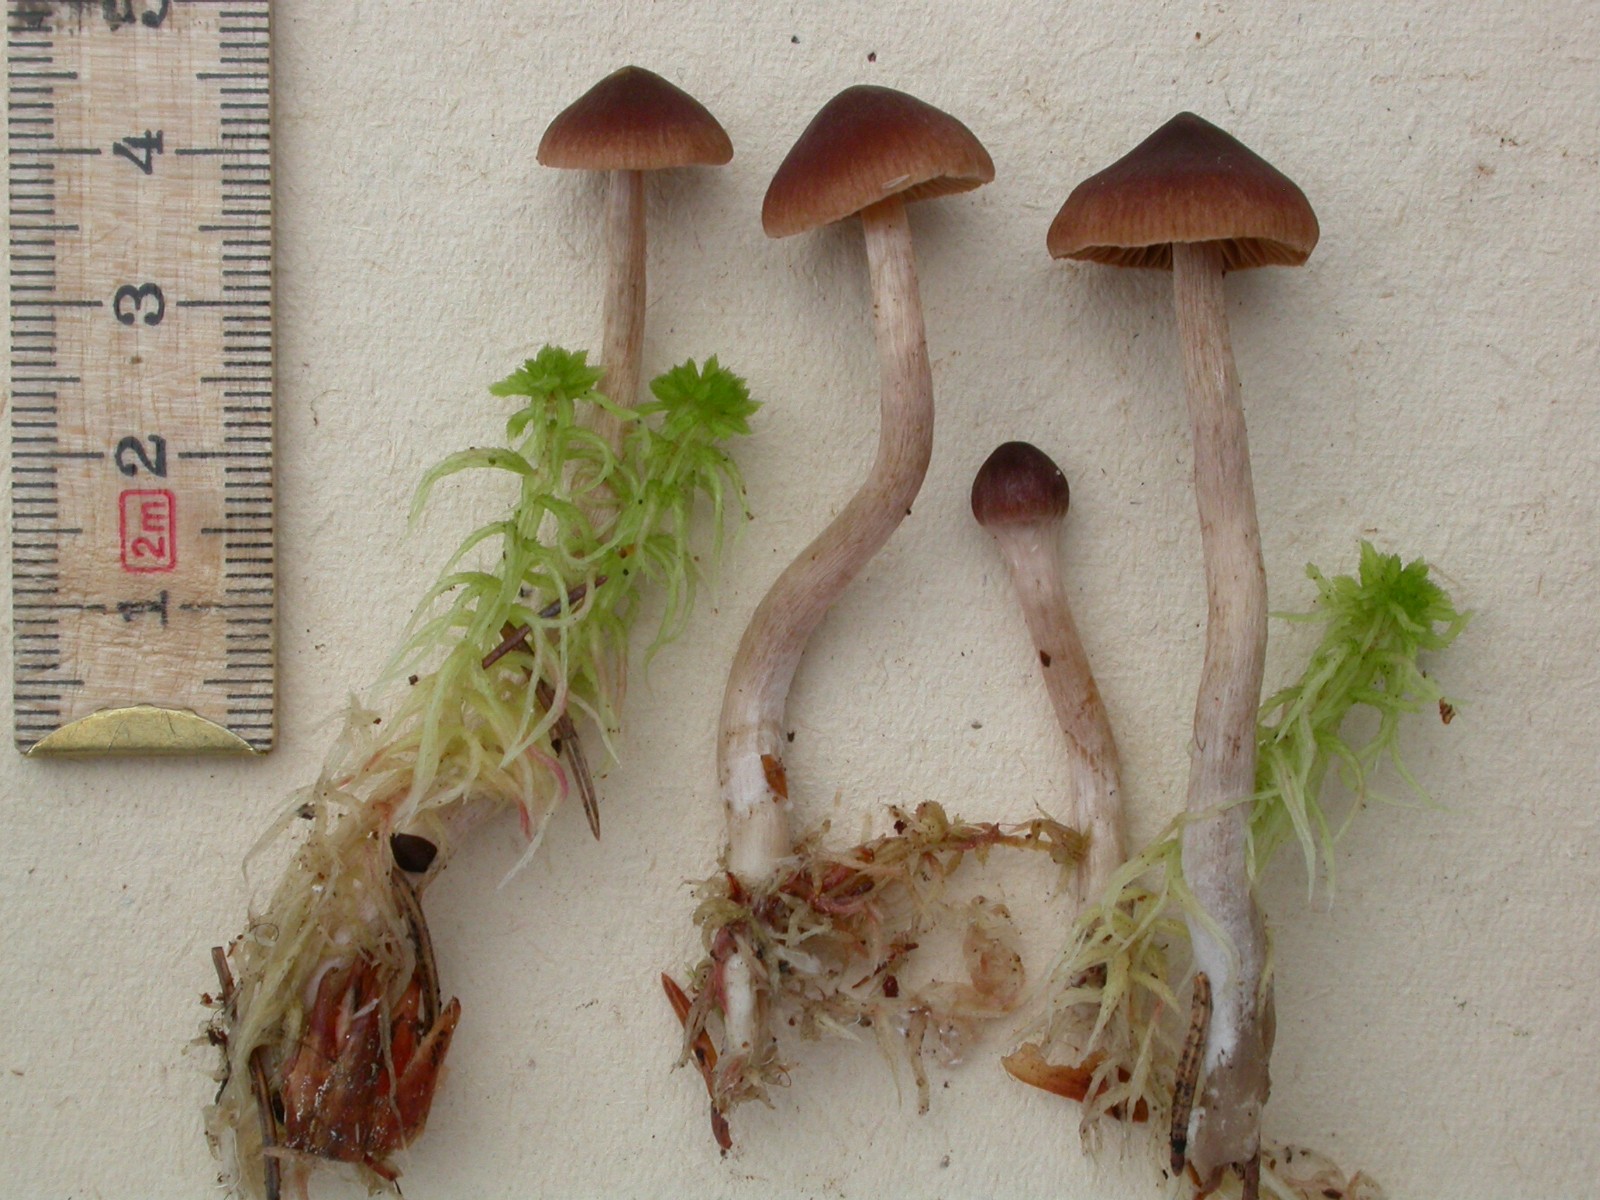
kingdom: Fungi
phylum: Basidiomycota
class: Agaricomycetes
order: Agaricales
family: Cortinariaceae
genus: Cortinarius
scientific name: Cortinarius tenuifulvescens
